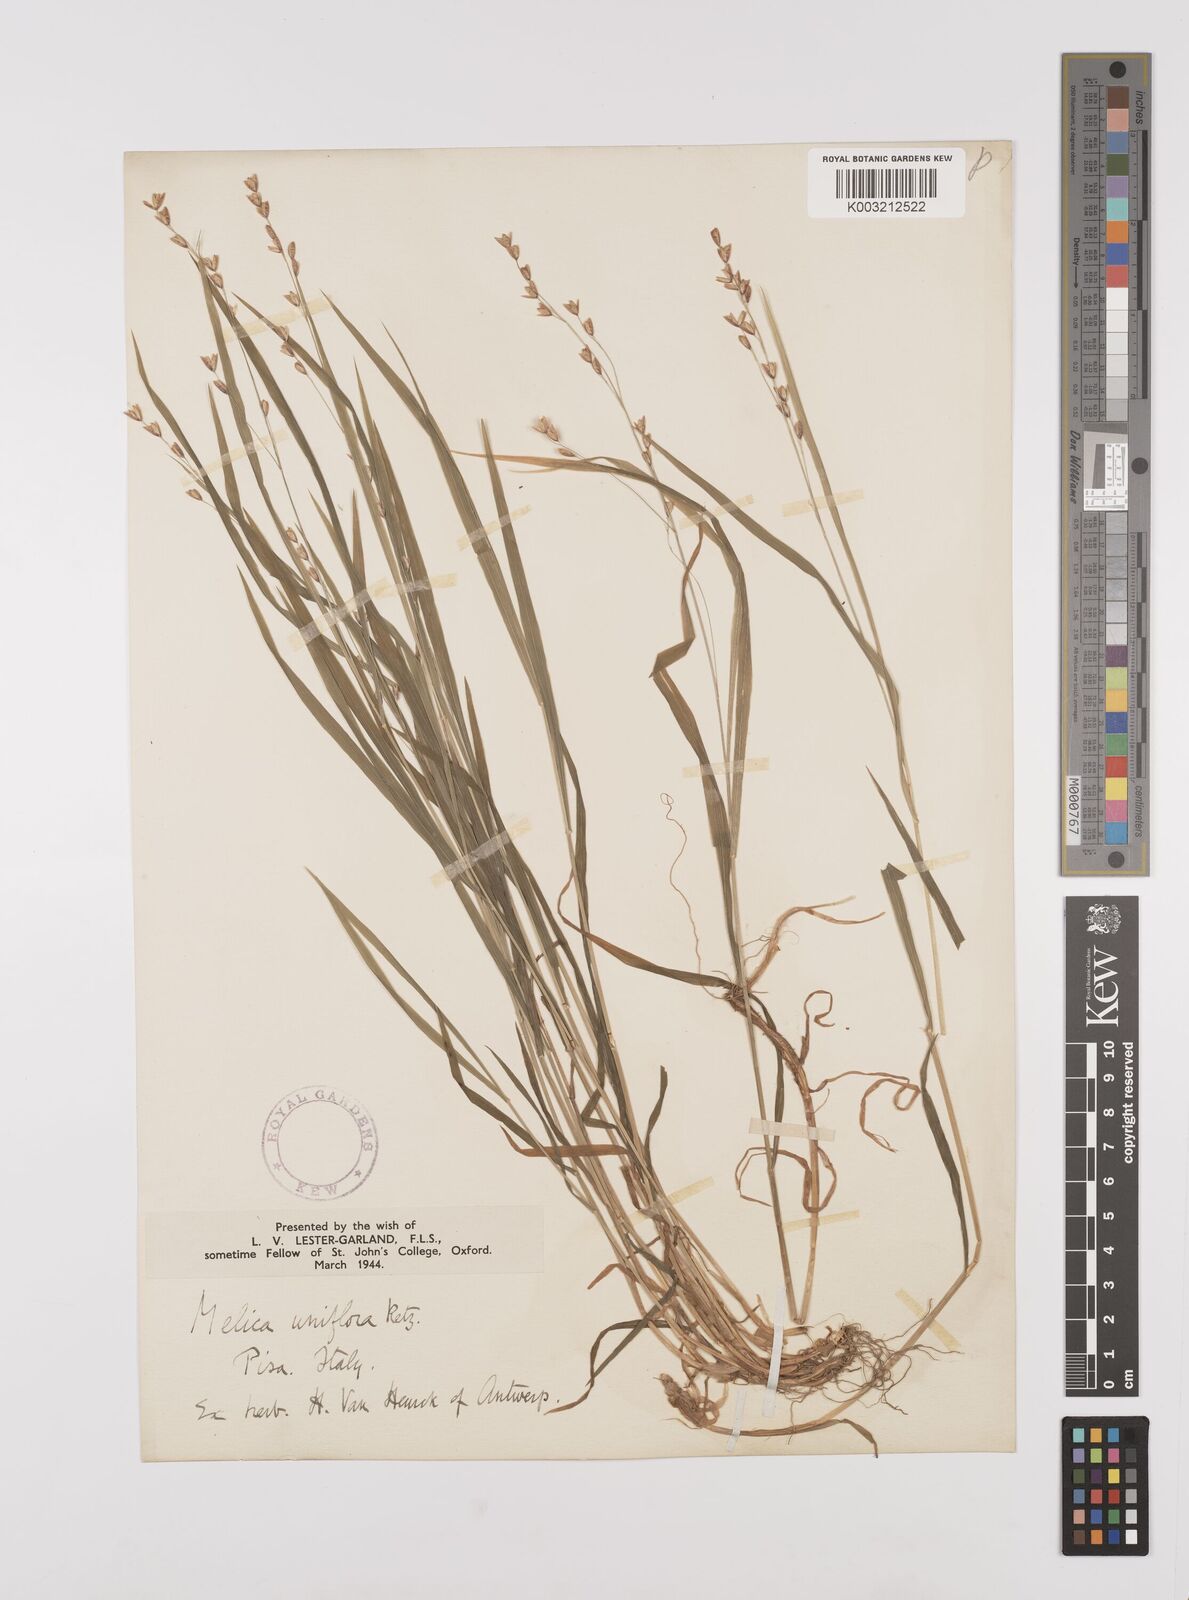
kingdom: Plantae
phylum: Tracheophyta
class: Liliopsida
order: Poales
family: Poaceae
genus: Melica
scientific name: Melica uniflora
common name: Wood melick
